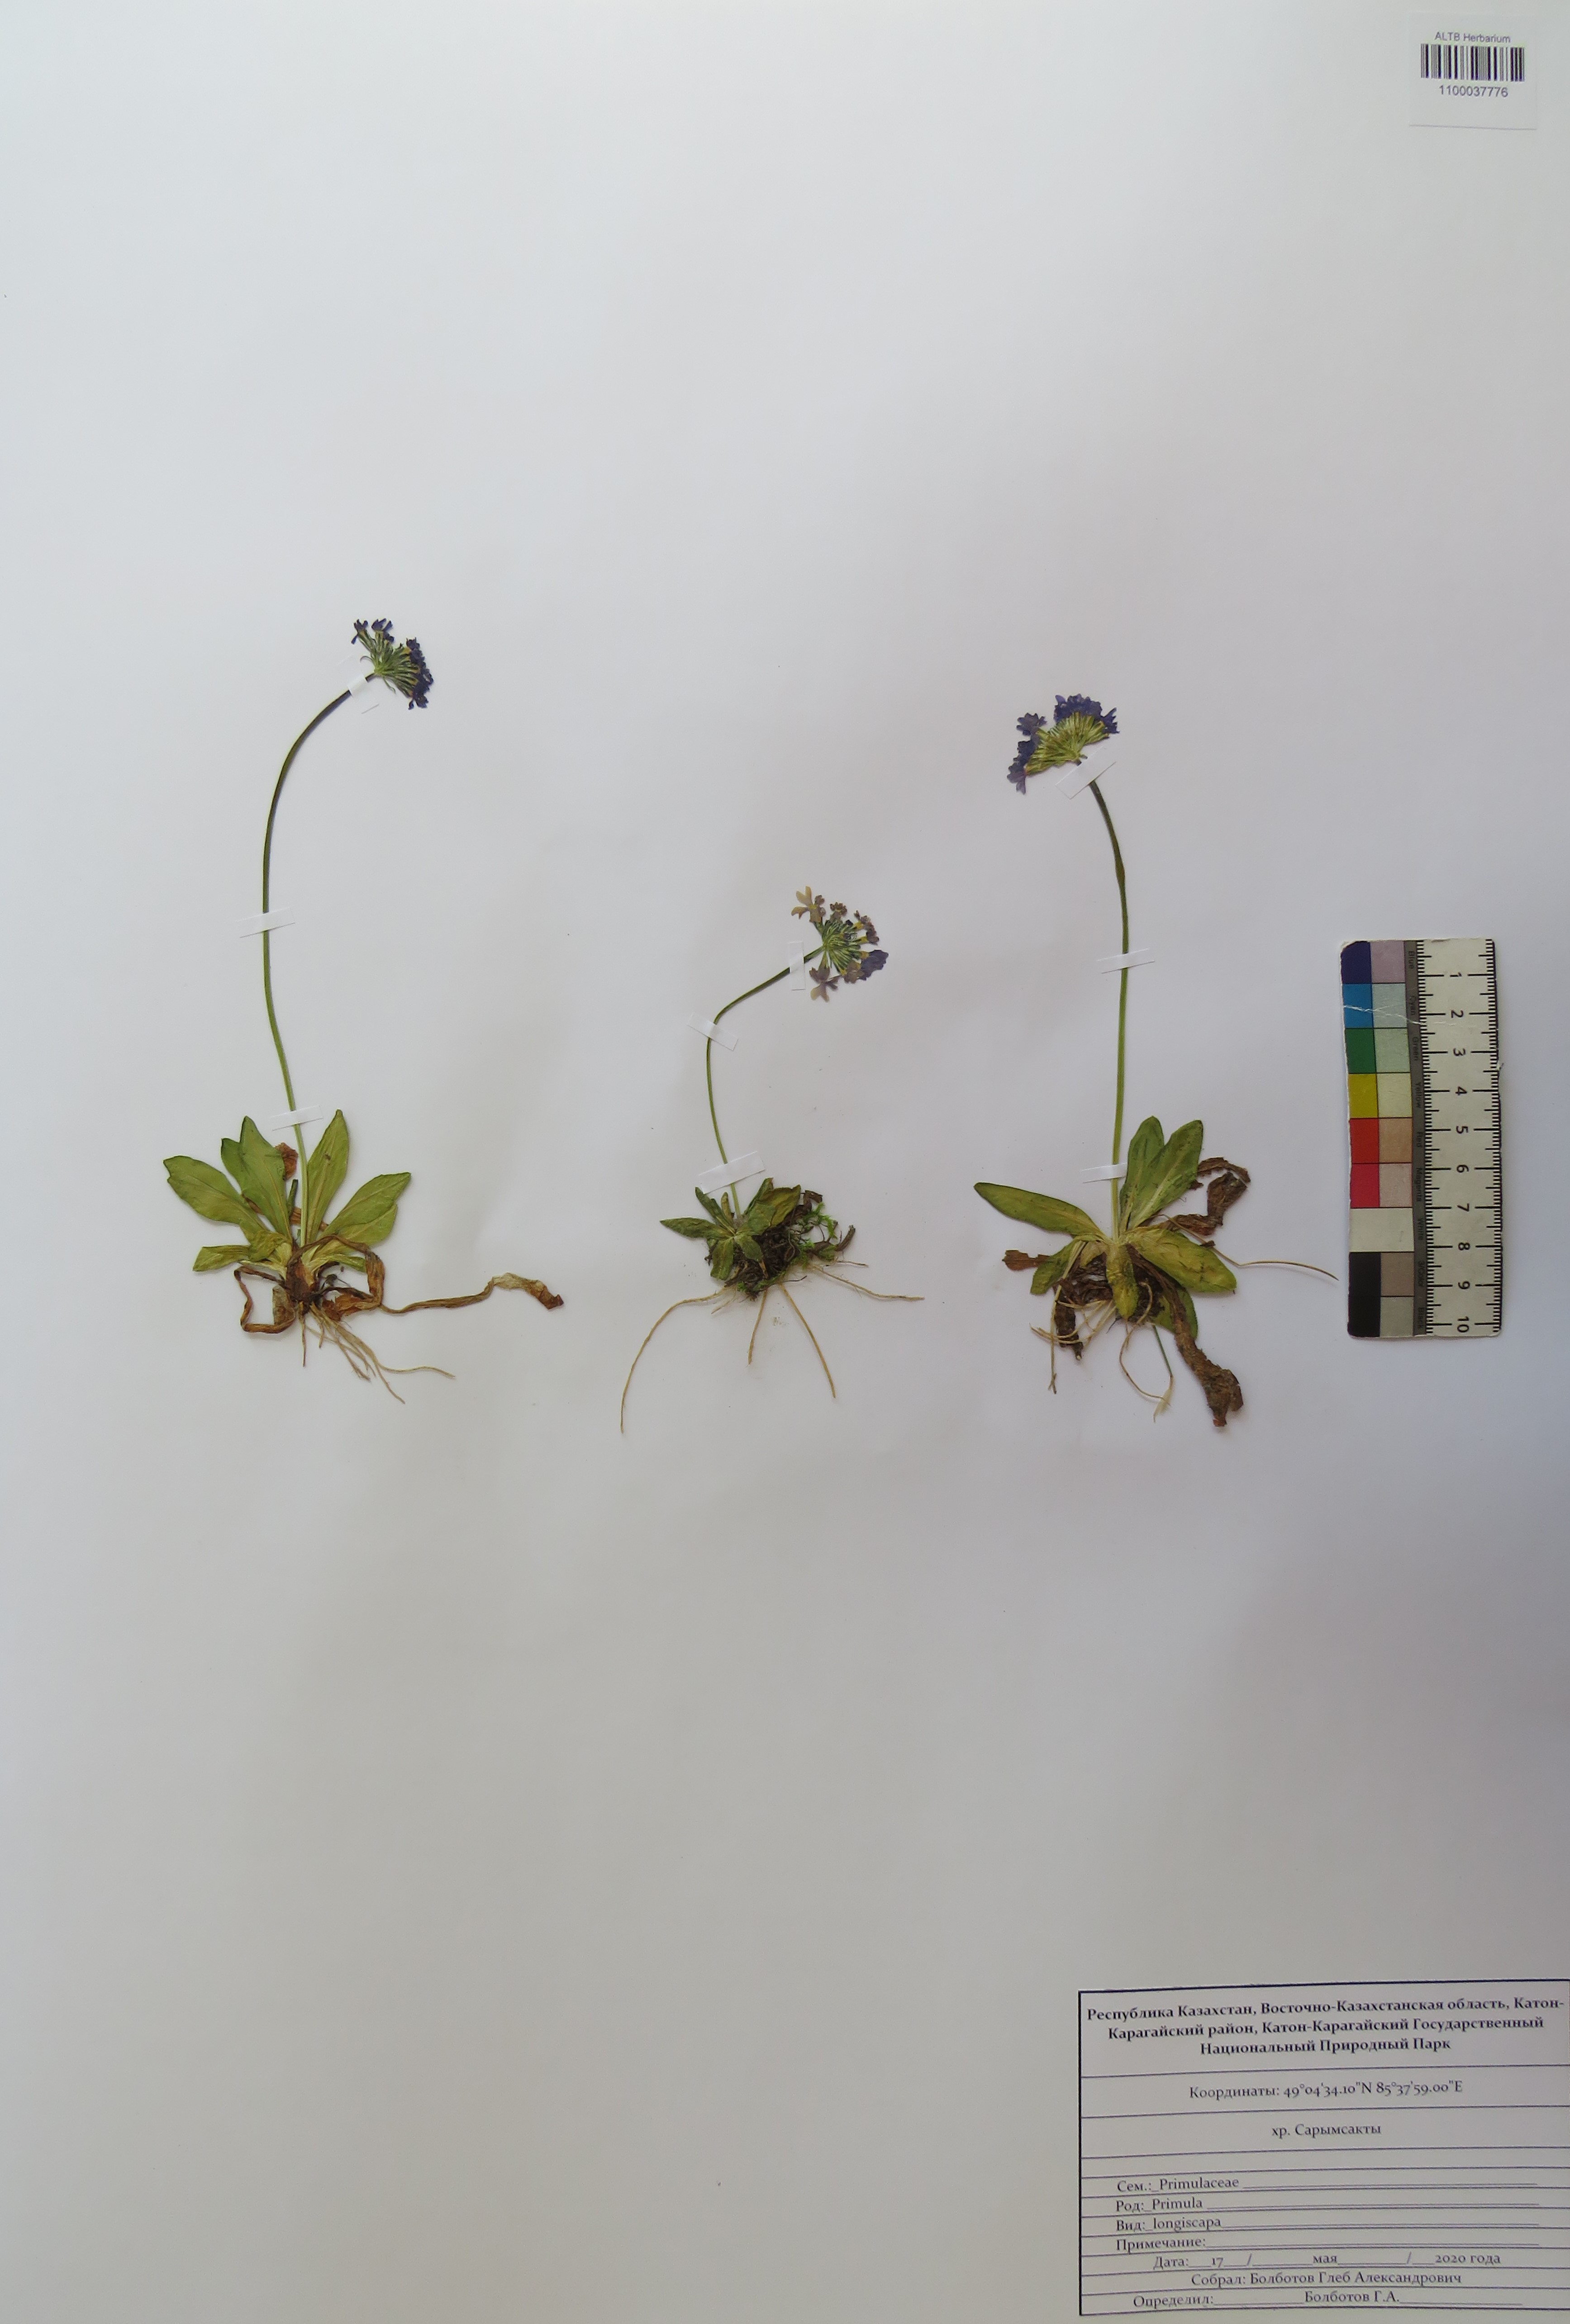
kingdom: Plantae
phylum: Tracheophyta
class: Magnoliopsida
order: Ericales
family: Primulaceae
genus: Primula
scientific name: Primula longiscapa
